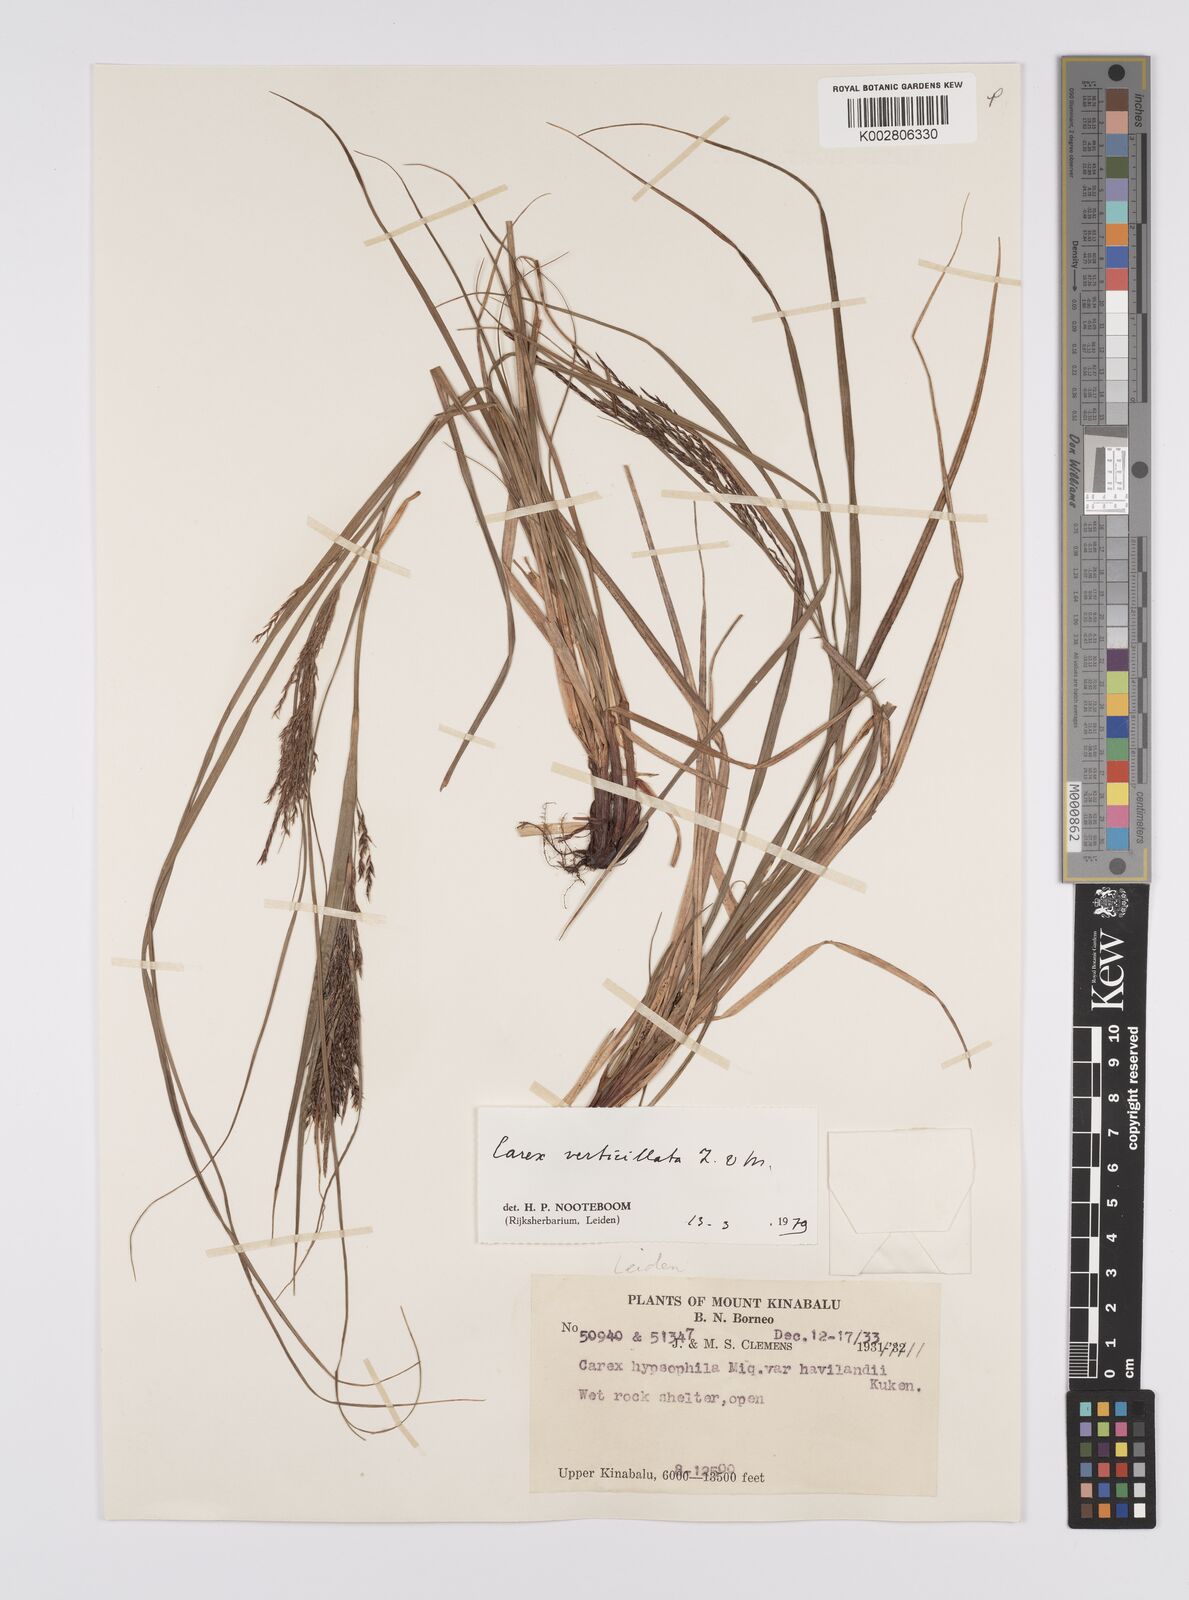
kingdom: Plantae
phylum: Tracheophyta
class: Liliopsida
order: Poales
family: Cyperaceae
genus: Carex
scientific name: Carex verticillata
